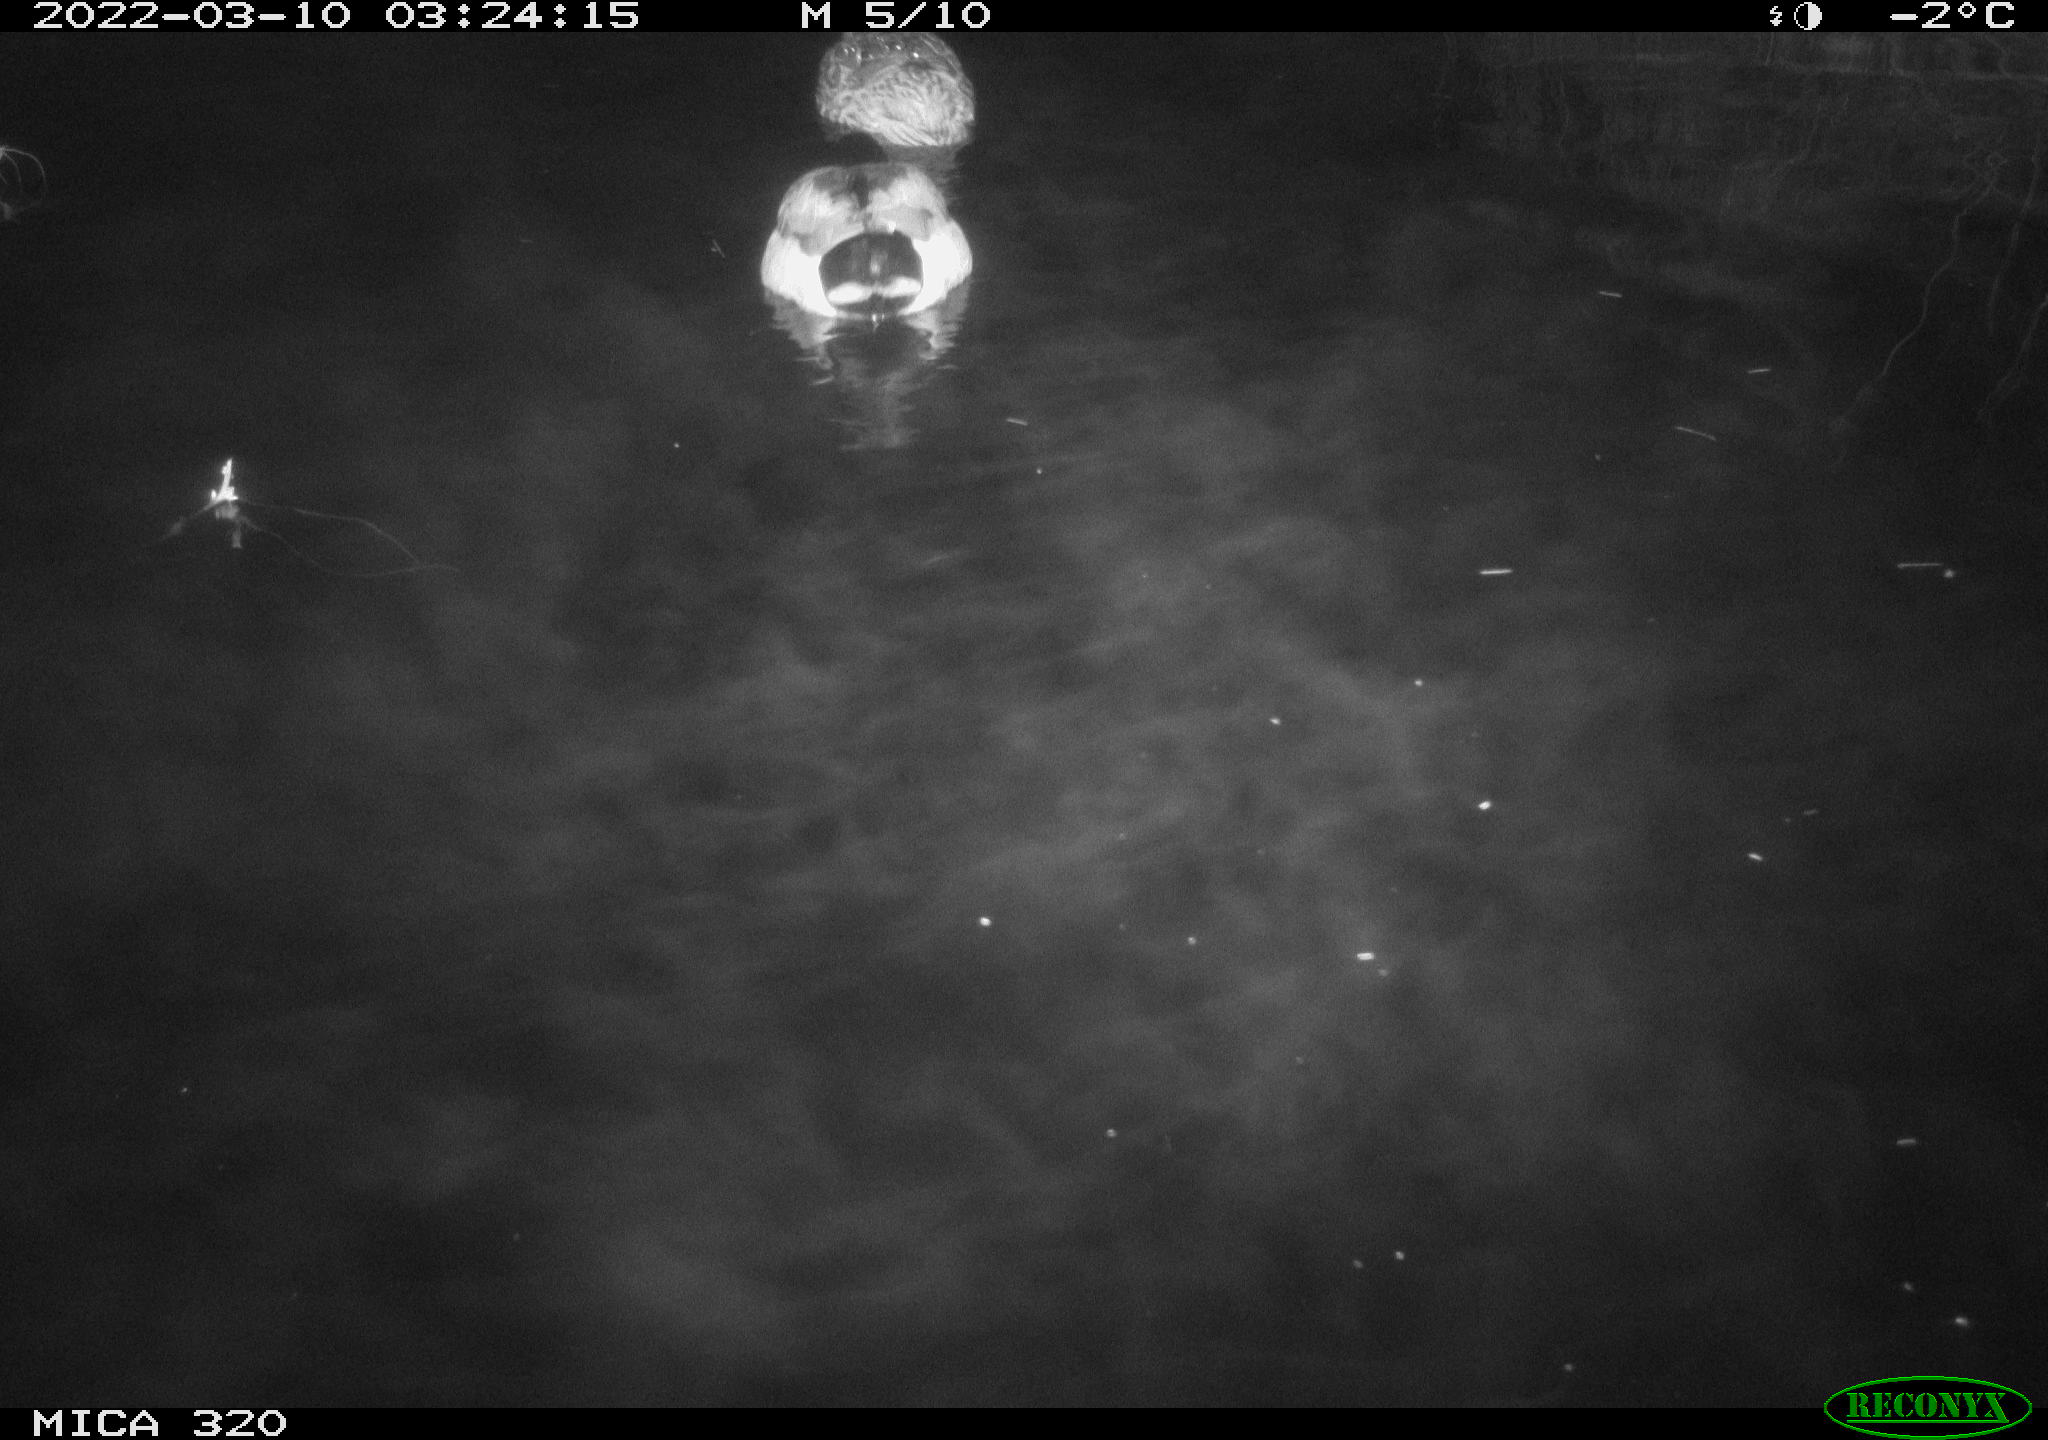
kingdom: Animalia
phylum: Chordata
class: Aves
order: Anseriformes
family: Anatidae
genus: Anas
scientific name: Anas platyrhynchos
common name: Mallard
